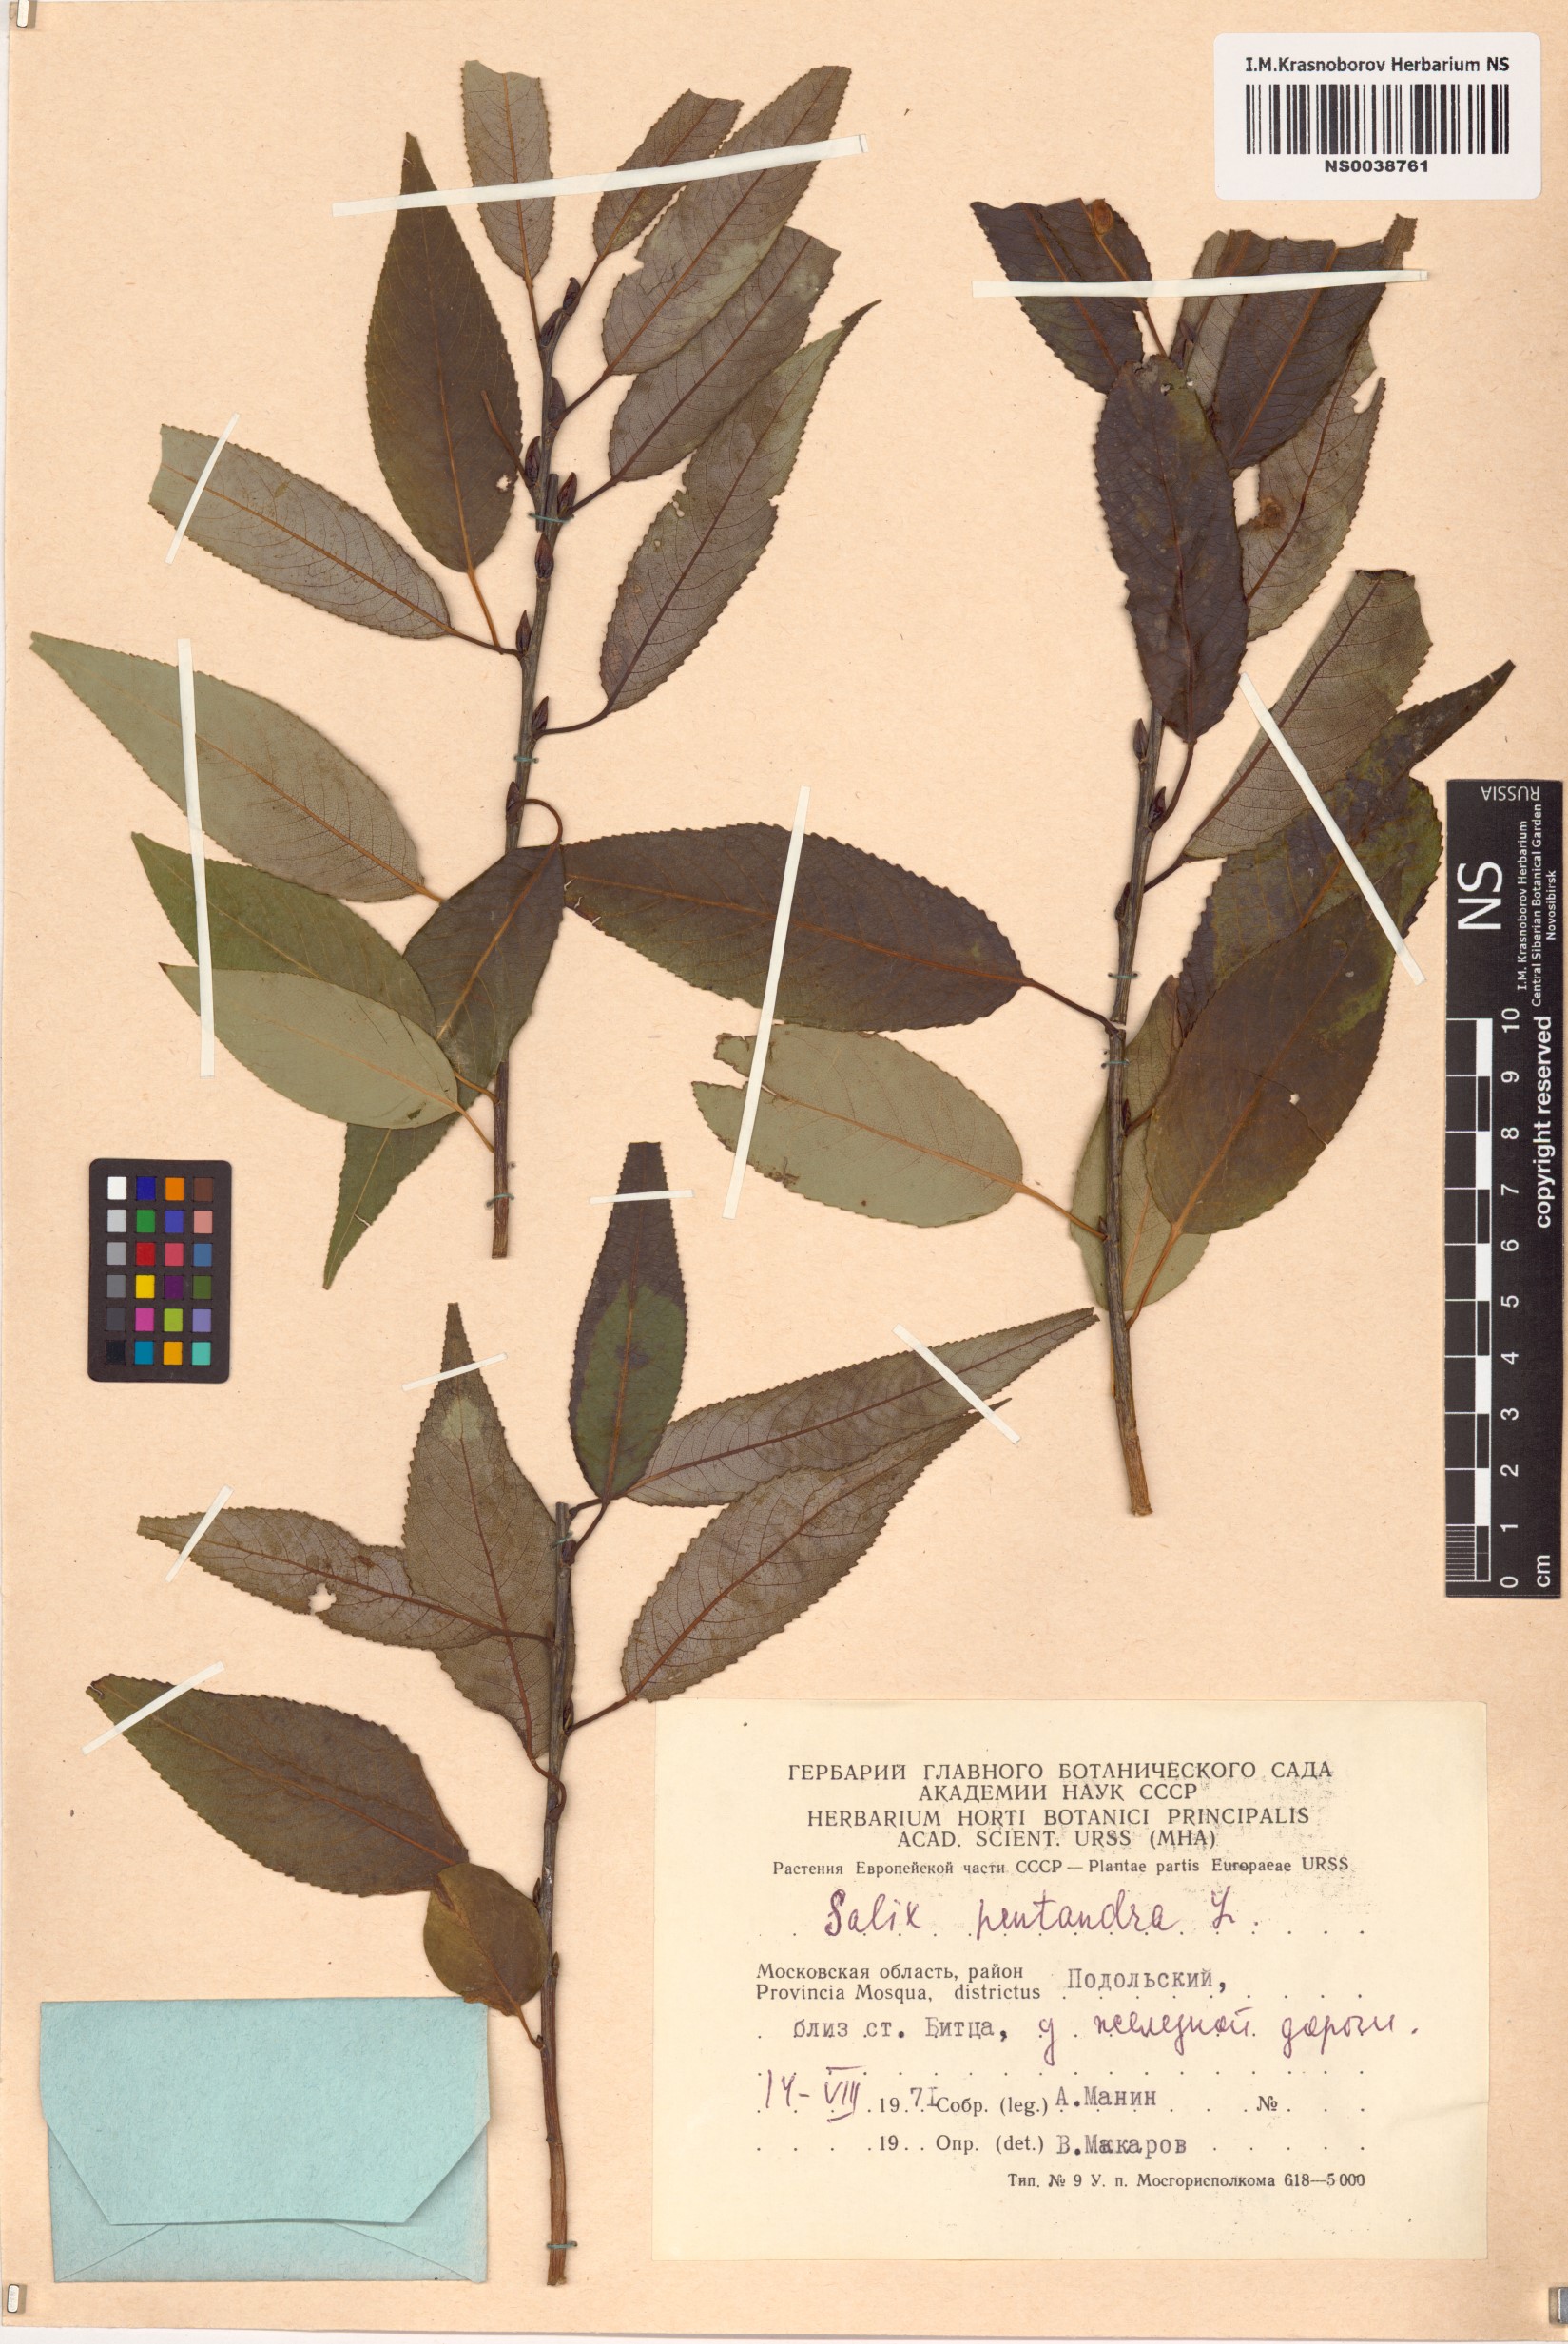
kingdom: Plantae
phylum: Tracheophyta
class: Magnoliopsida
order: Malpighiales
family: Salicaceae
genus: Salix
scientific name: Salix pentandra
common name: Bay willow
